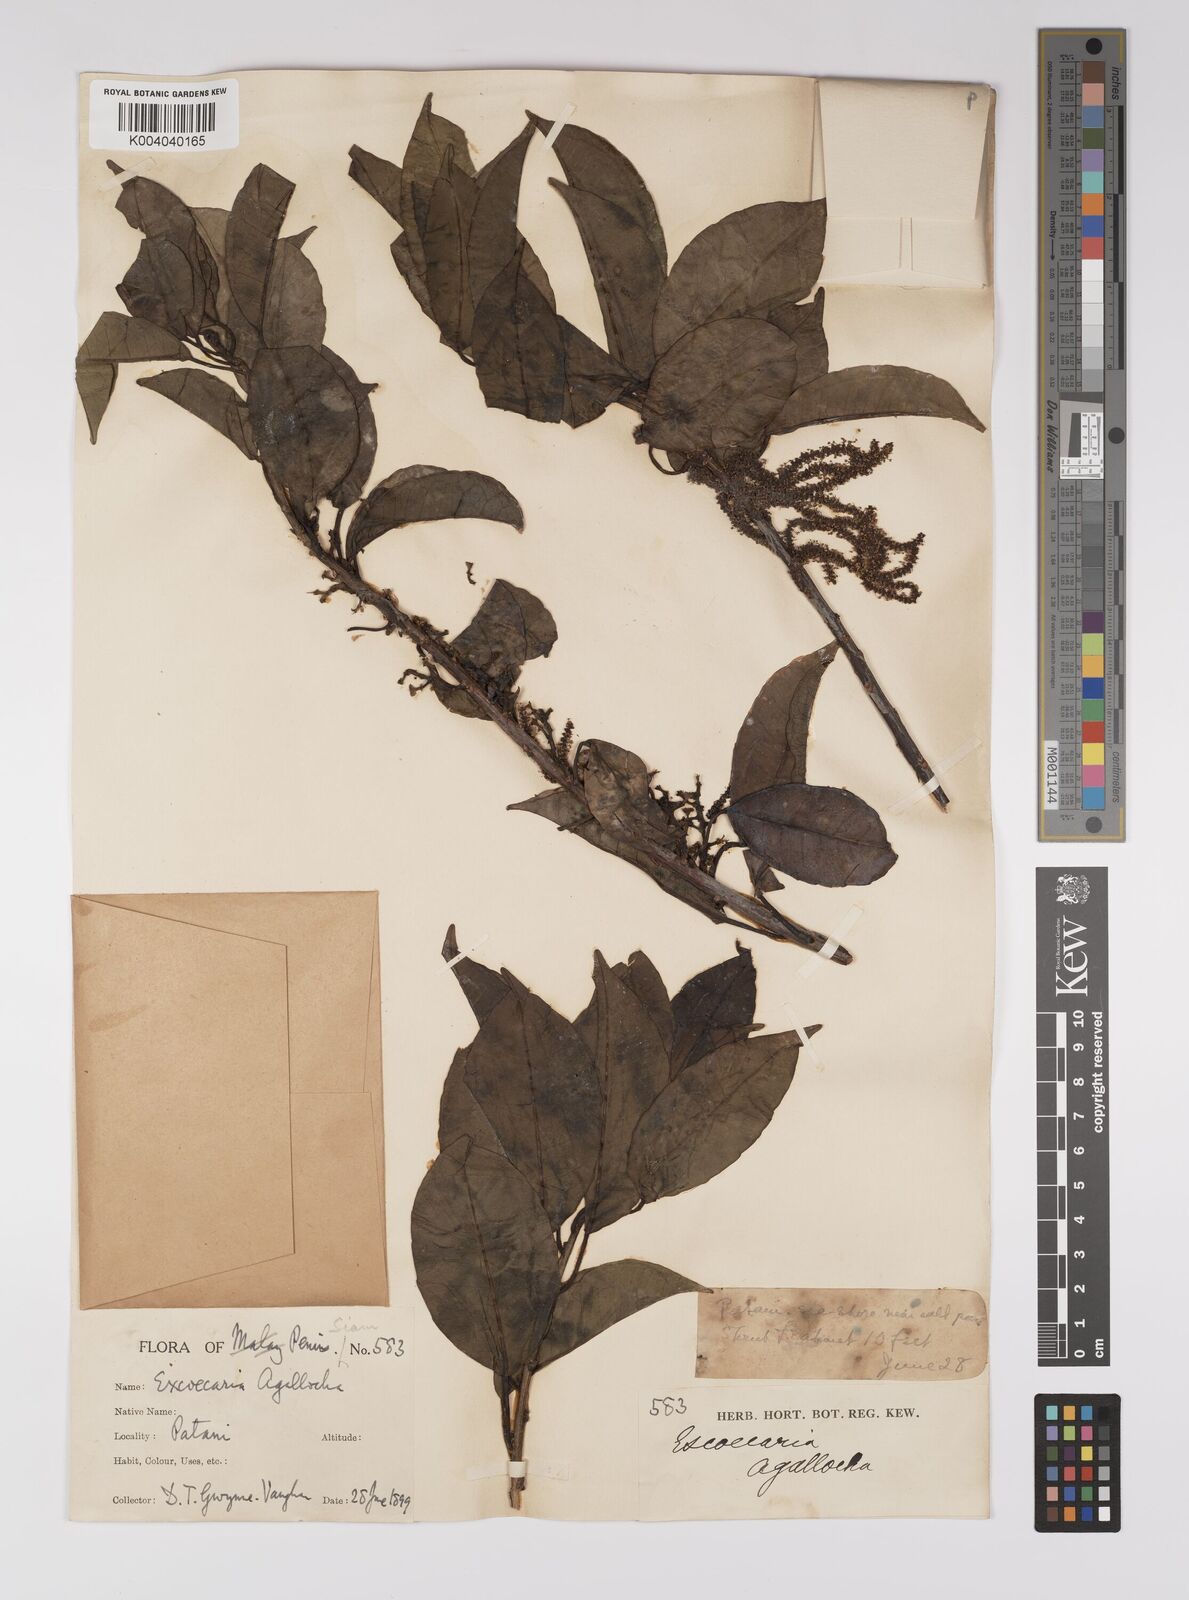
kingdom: Plantae
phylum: Tracheophyta
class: Magnoliopsida
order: Malpighiales
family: Euphorbiaceae
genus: Excoecaria
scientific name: Excoecaria agallocha
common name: River poisontree
